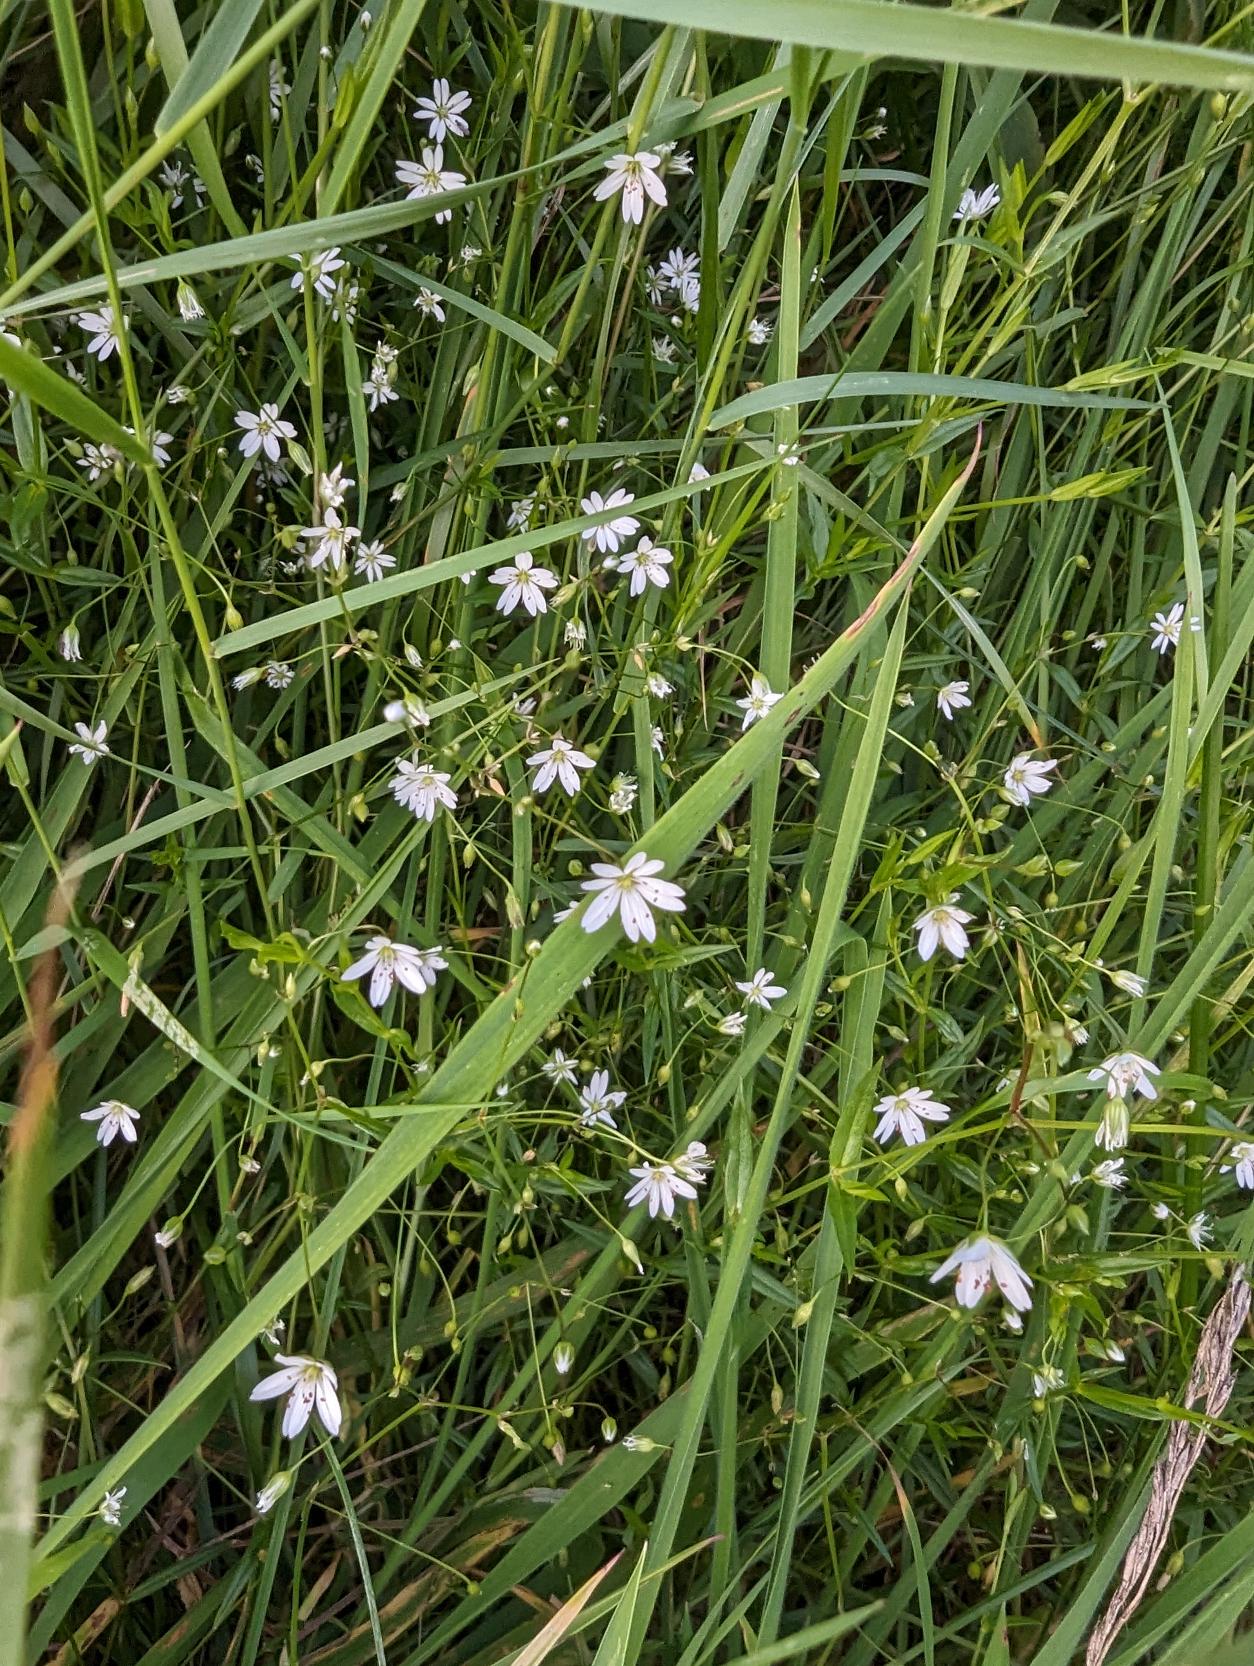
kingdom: Plantae
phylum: Tracheophyta
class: Magnoliopsida
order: Caryophyllales
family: Caryophyllaceae
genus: Stellaria
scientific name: Stellaria graminea
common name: Græsbladet fladstjerne
